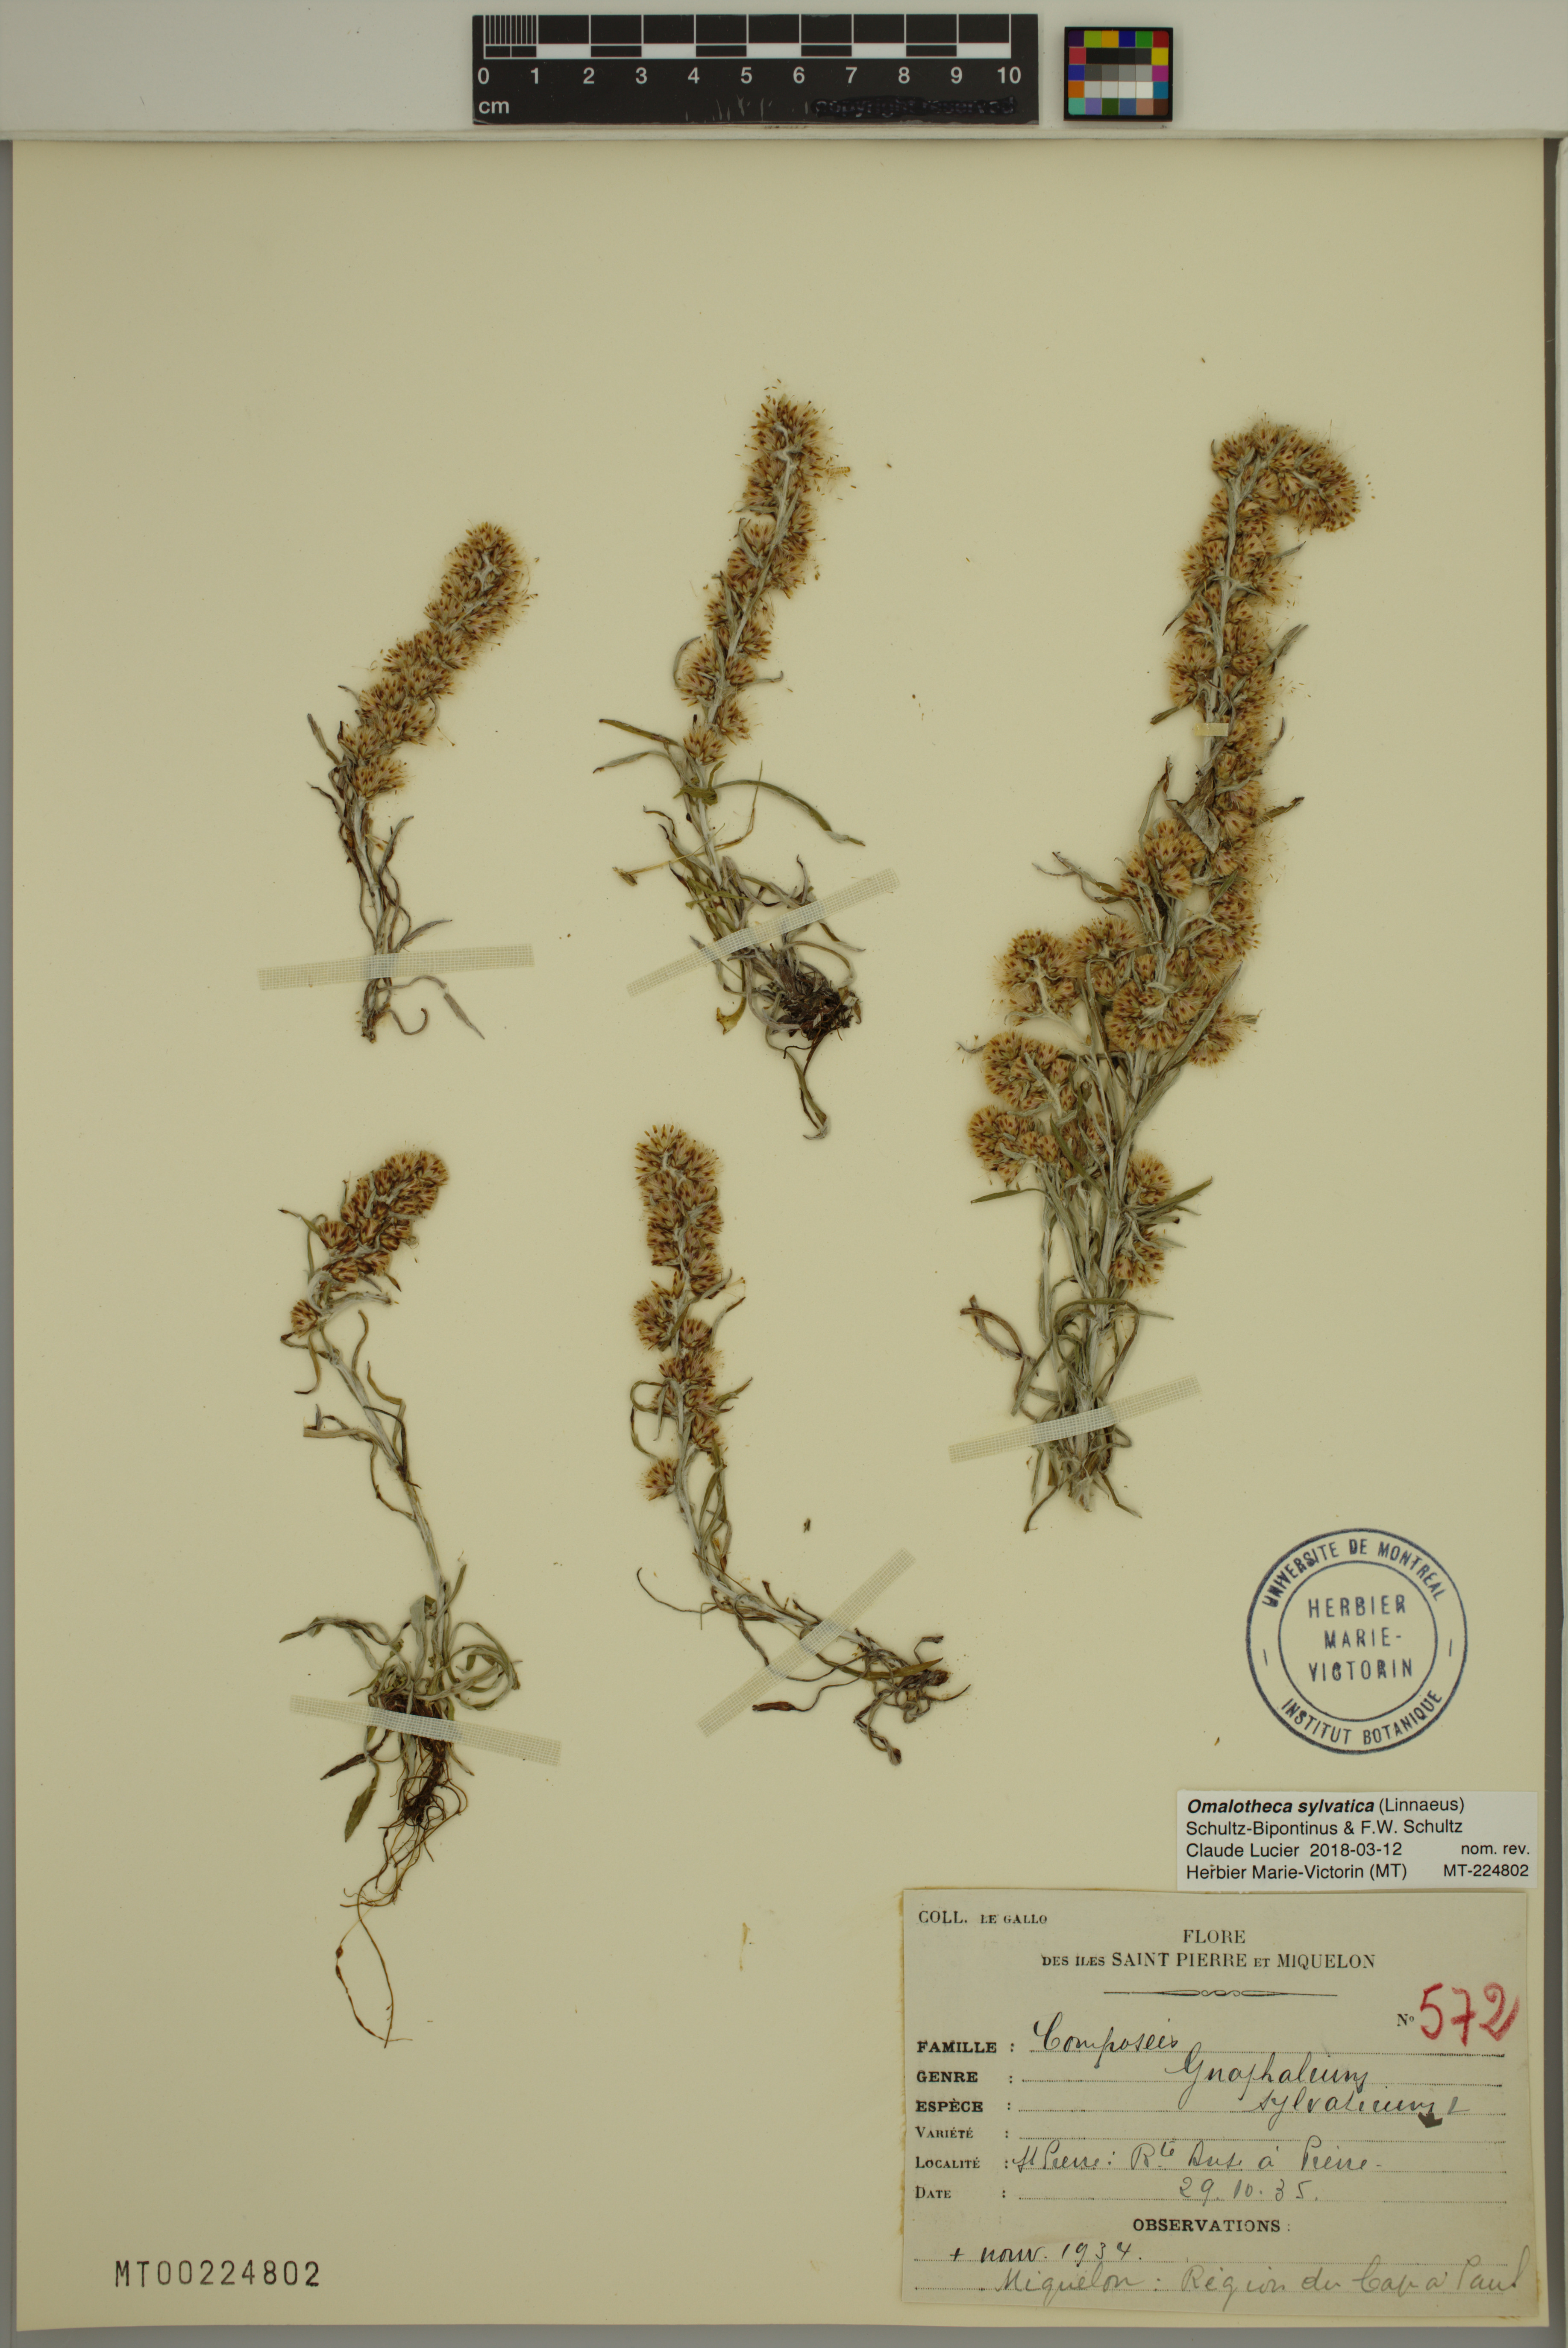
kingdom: Plantae
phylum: Tracheophyta
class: Magnoliopsida
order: Asterales
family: Asteraceae
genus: Omalotheca
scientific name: Omalotheca sylvatica
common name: Heath cudweed
